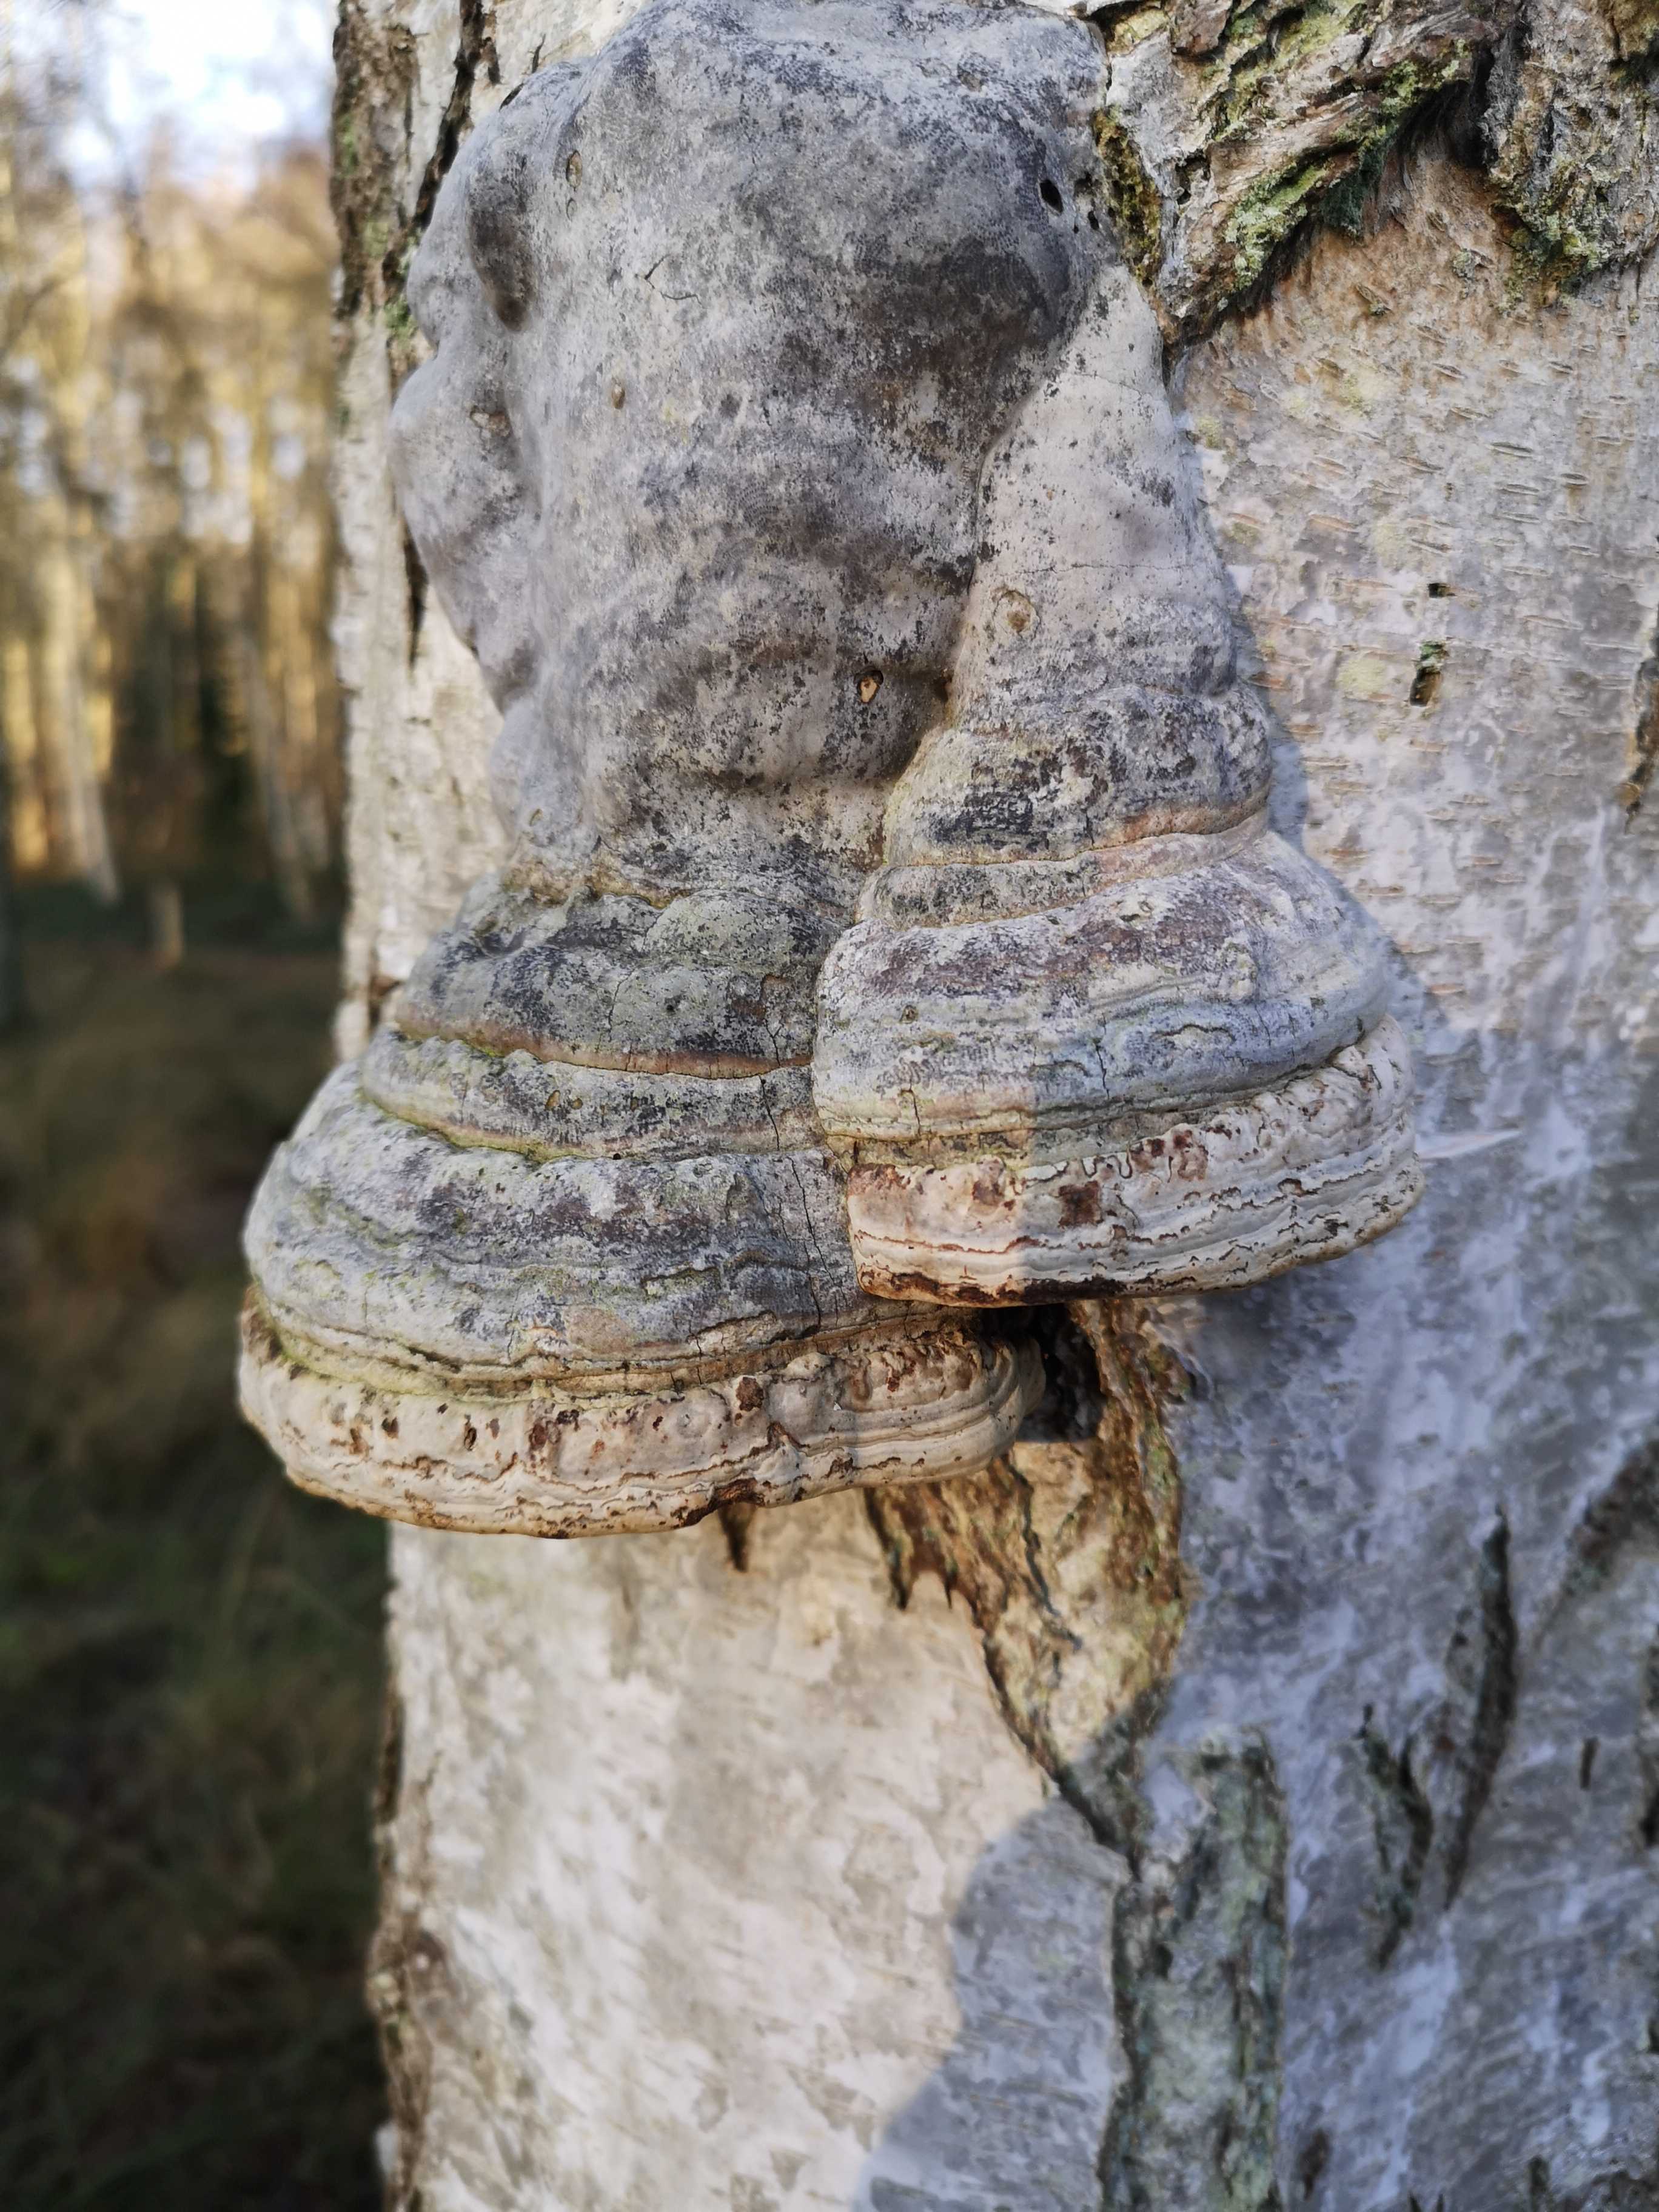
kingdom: Fungi
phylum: Basidiomycota
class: Agaricomycetes
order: Polyporales
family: Polyporaceae
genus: Fomes
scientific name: Fomes fomentarius
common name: tøndersvamp
